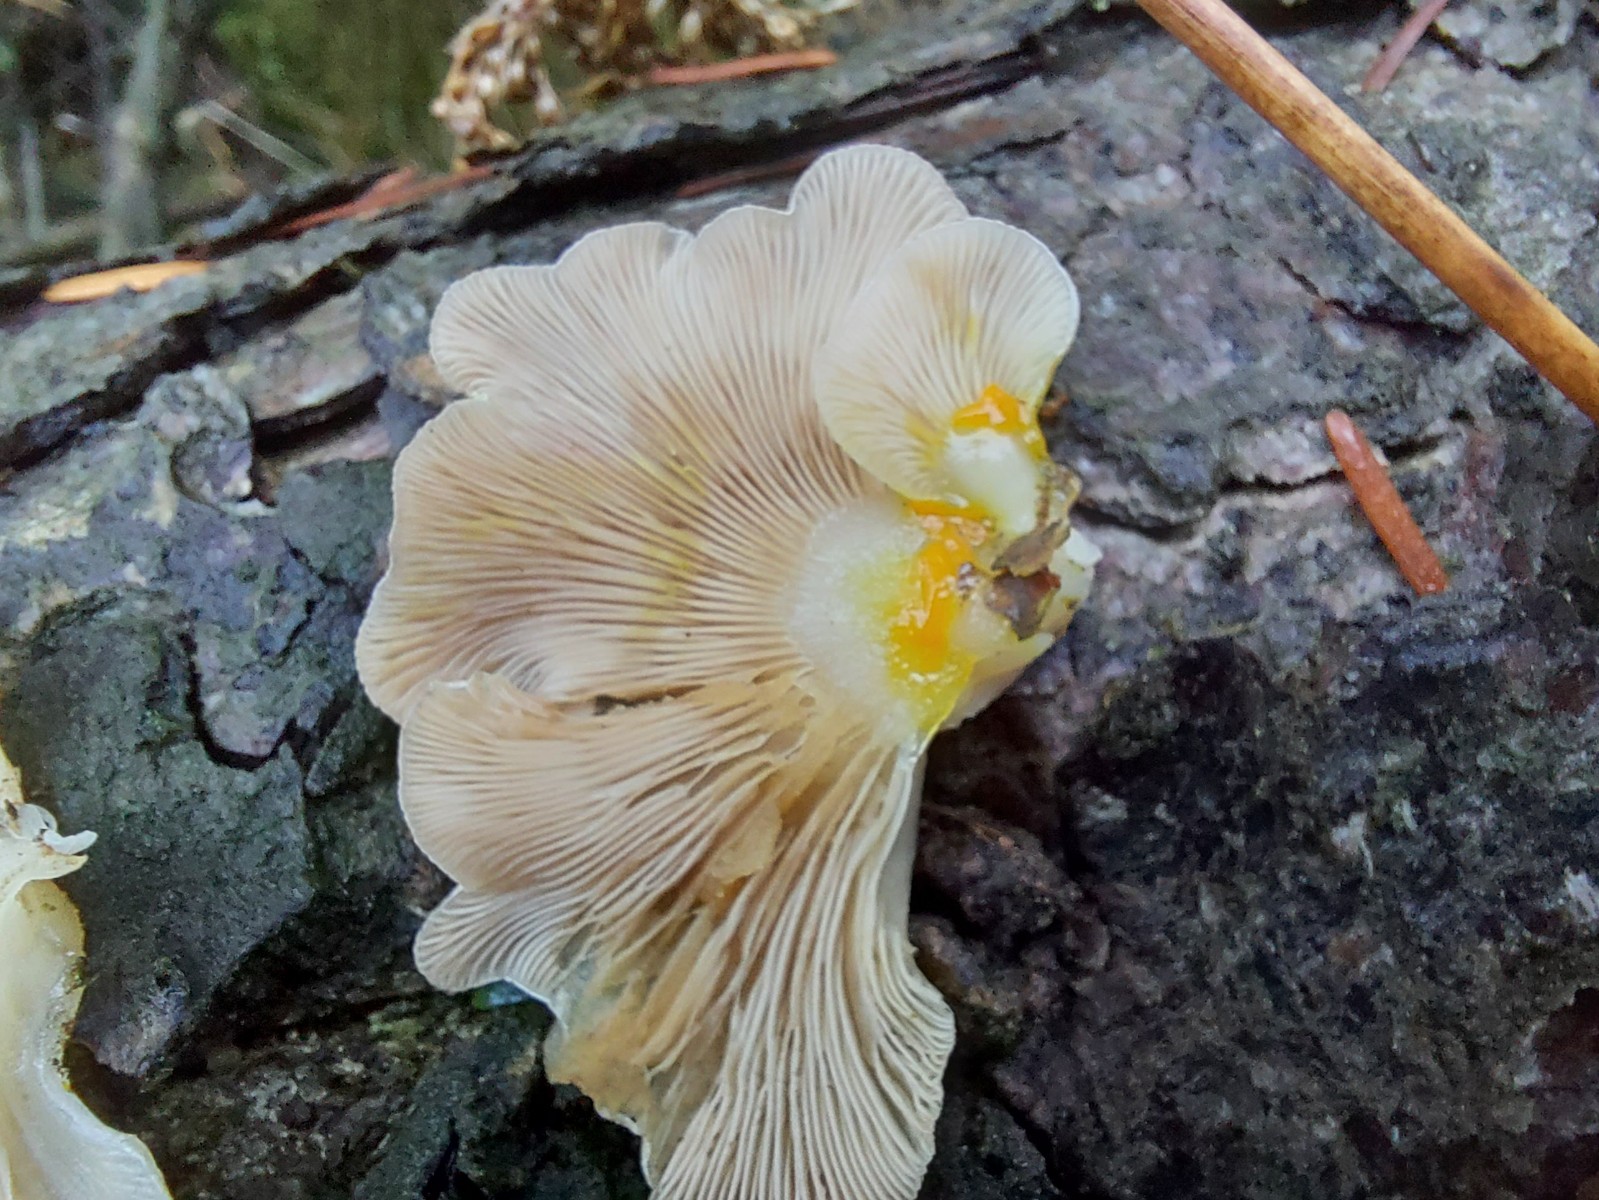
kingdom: Fungi
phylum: Basidiomycota
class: Agaricomycetes
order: Agaricales
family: Mycenaceae
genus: Panellus
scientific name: Panellus mitis
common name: mild epaulethat
